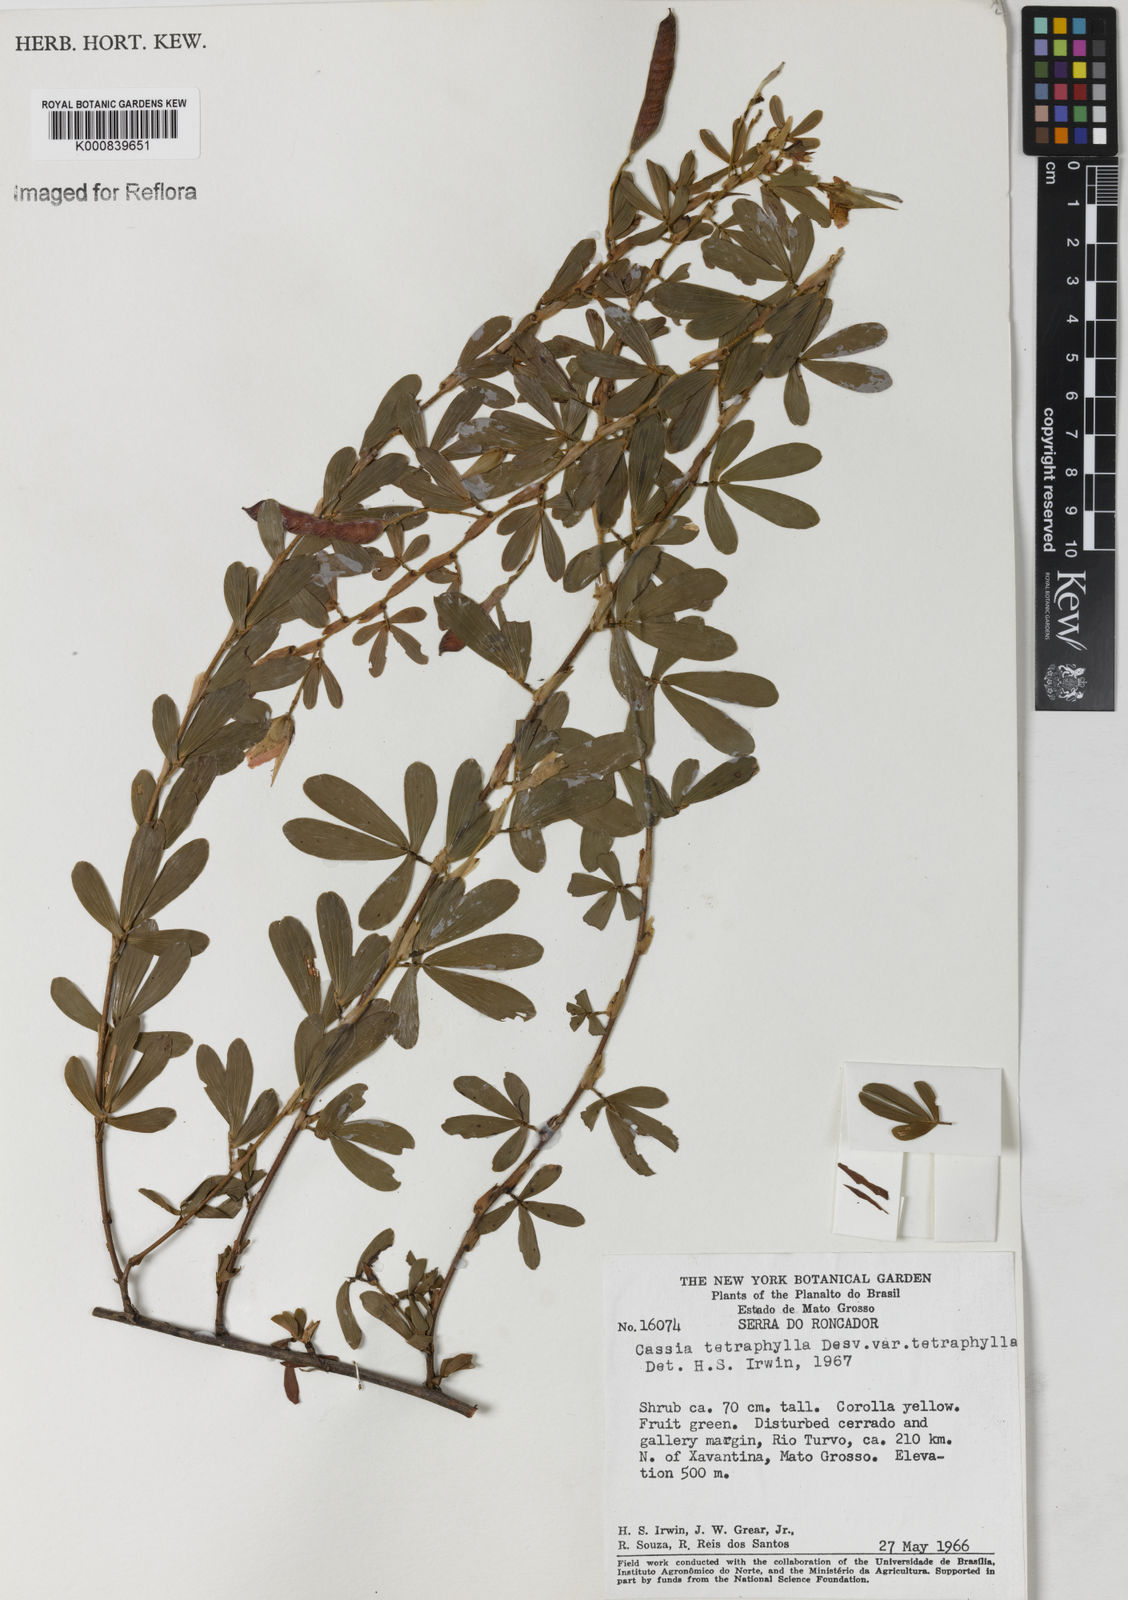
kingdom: Plantae
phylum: Tracheophyta
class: Magnoliopsida
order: Fabales
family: Fabaceae
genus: Chamaecrista
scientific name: Chamaecrista desvauxii
